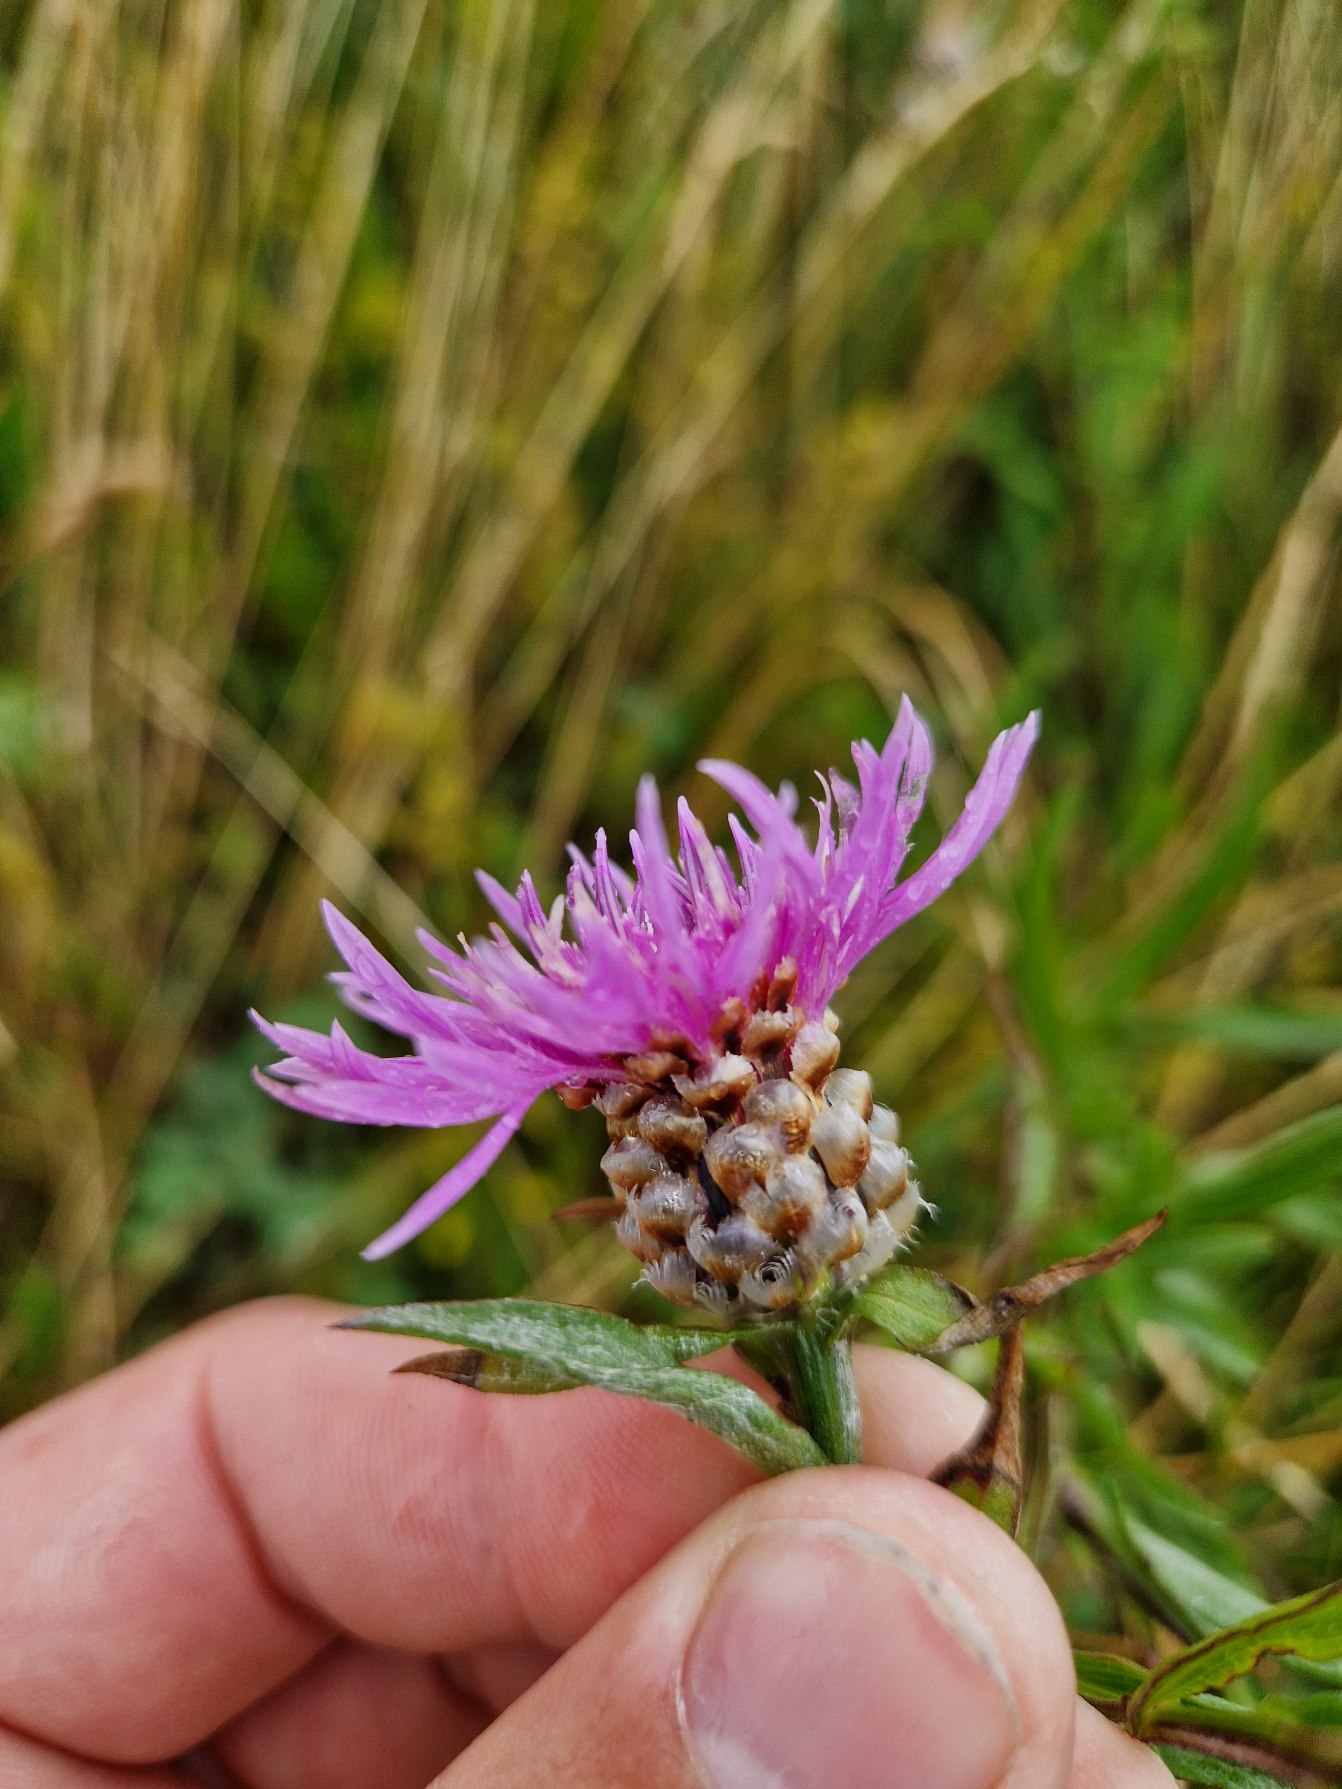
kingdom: Plantae
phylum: Tracheophyta
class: Magnoliopsida
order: Asterales
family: Asteraceae
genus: Centaurea
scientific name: Centaurea jacea
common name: Almindelig knopurt
